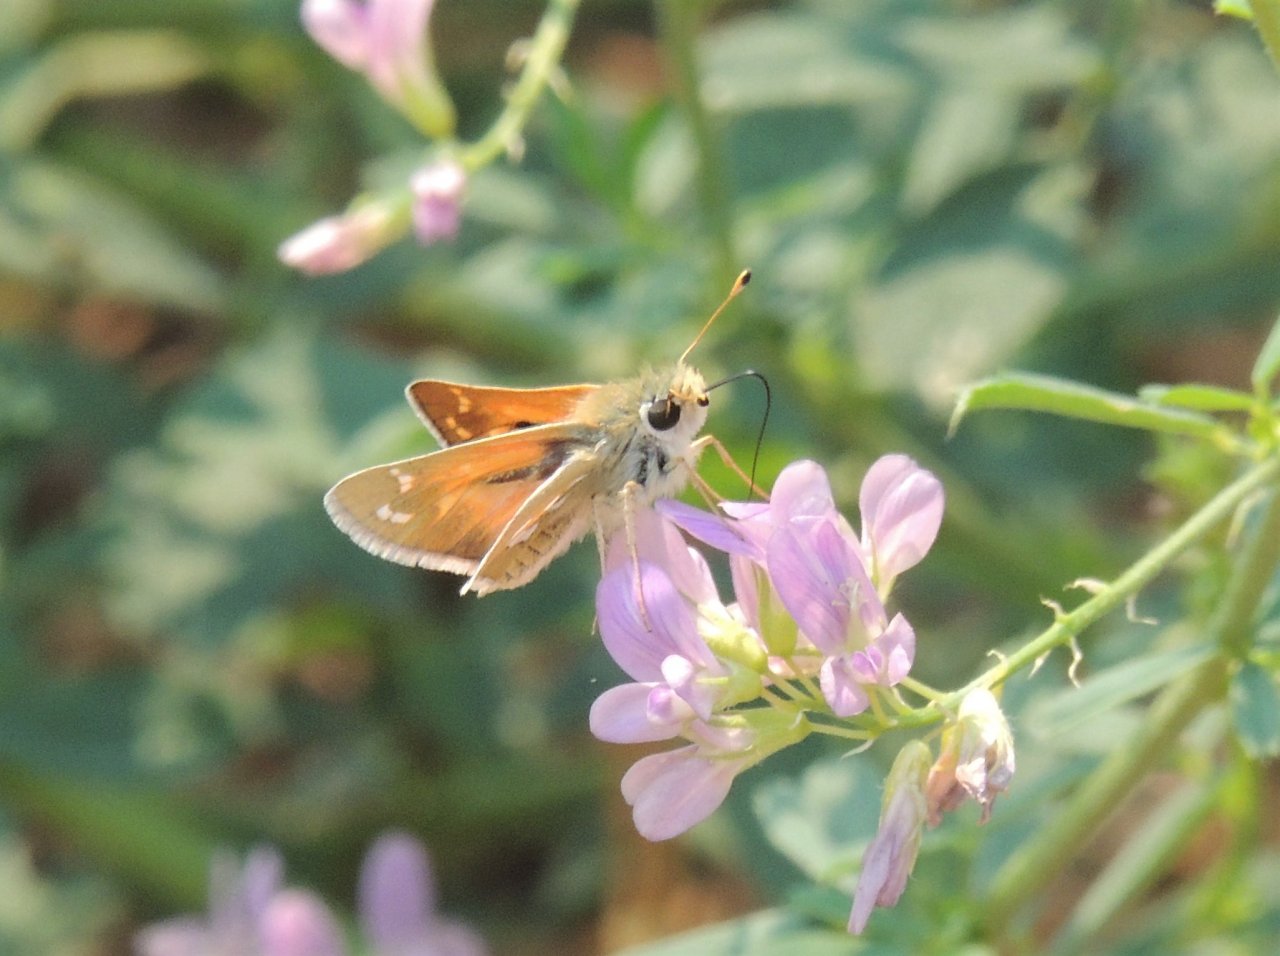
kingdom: Animalia
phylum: Arthropoda
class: Insecta
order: Lepidoptera
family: Hesperiidae
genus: Hesperia
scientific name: Hesperia comma
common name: Western Branded Skipper
